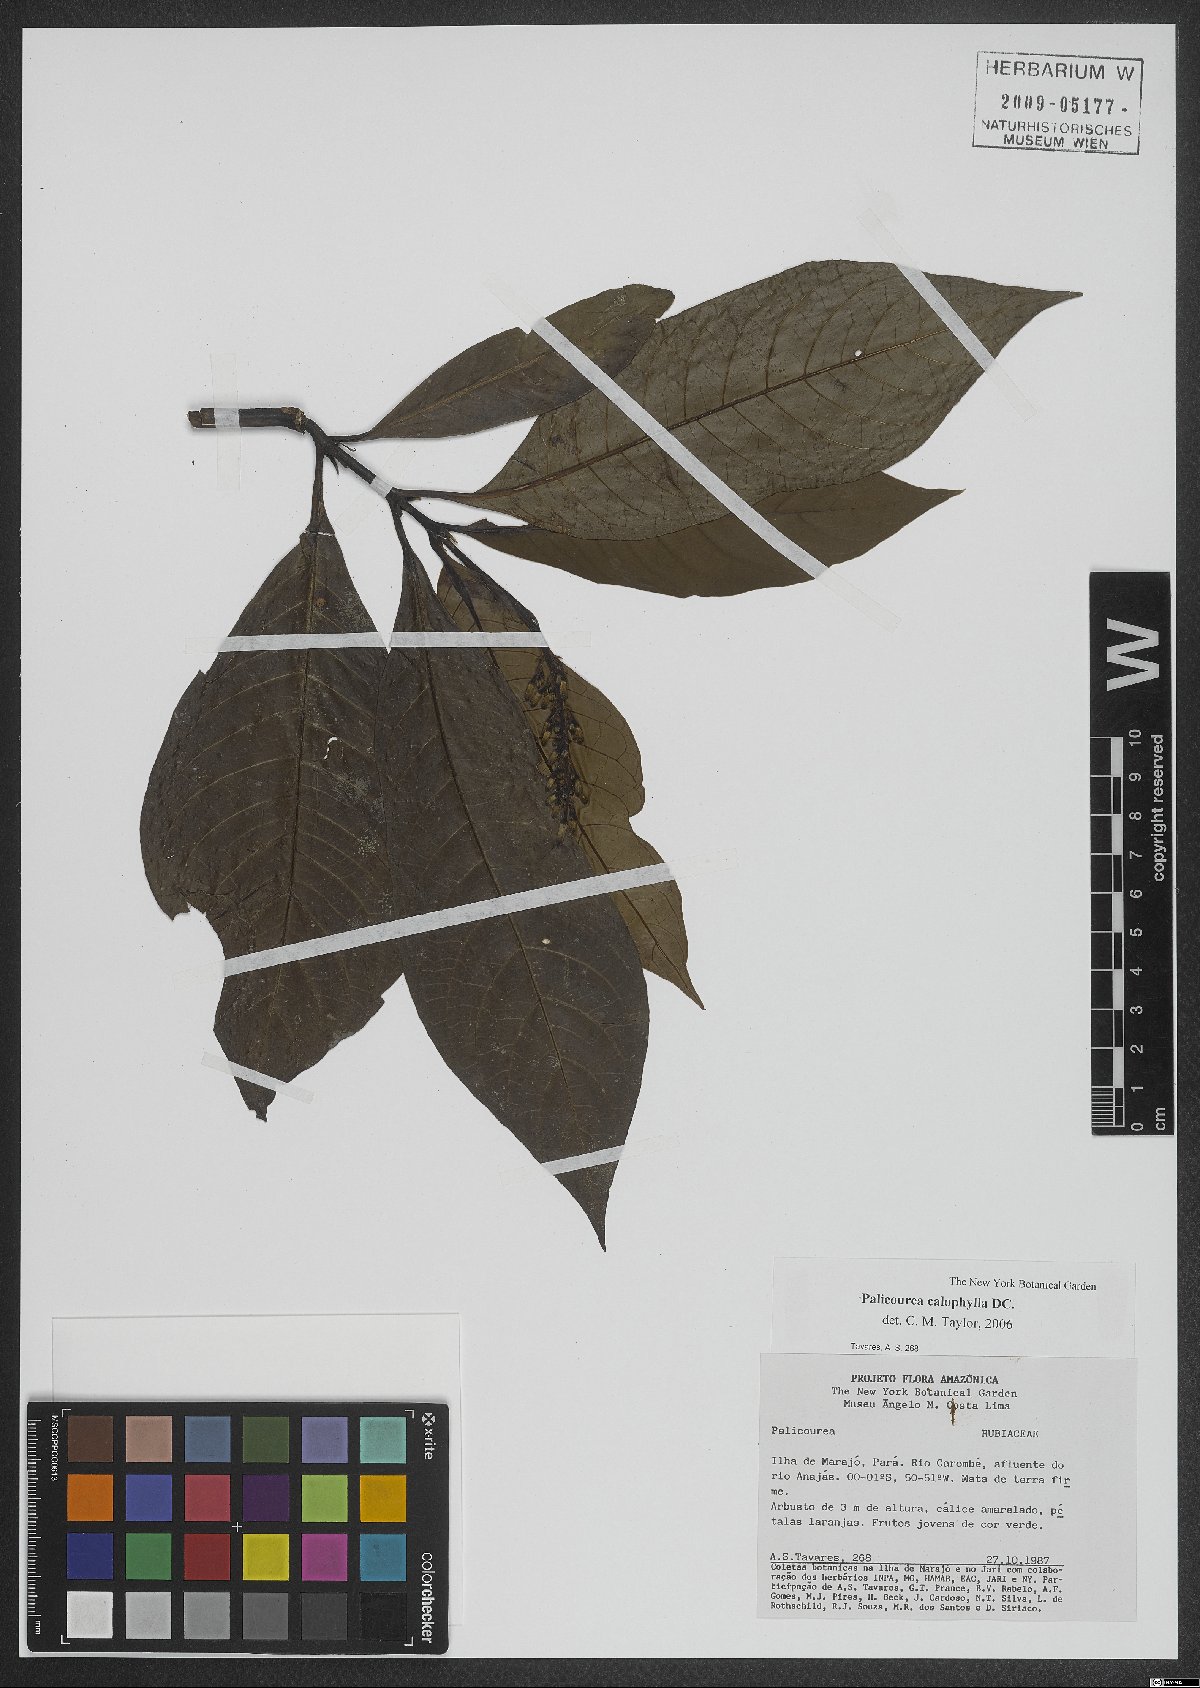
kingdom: Plantae
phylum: Tracheophyta
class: Magnoliopsida
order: Gentianales
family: Rubiaceae
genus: Palicourea
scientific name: Palicourea calophylla
